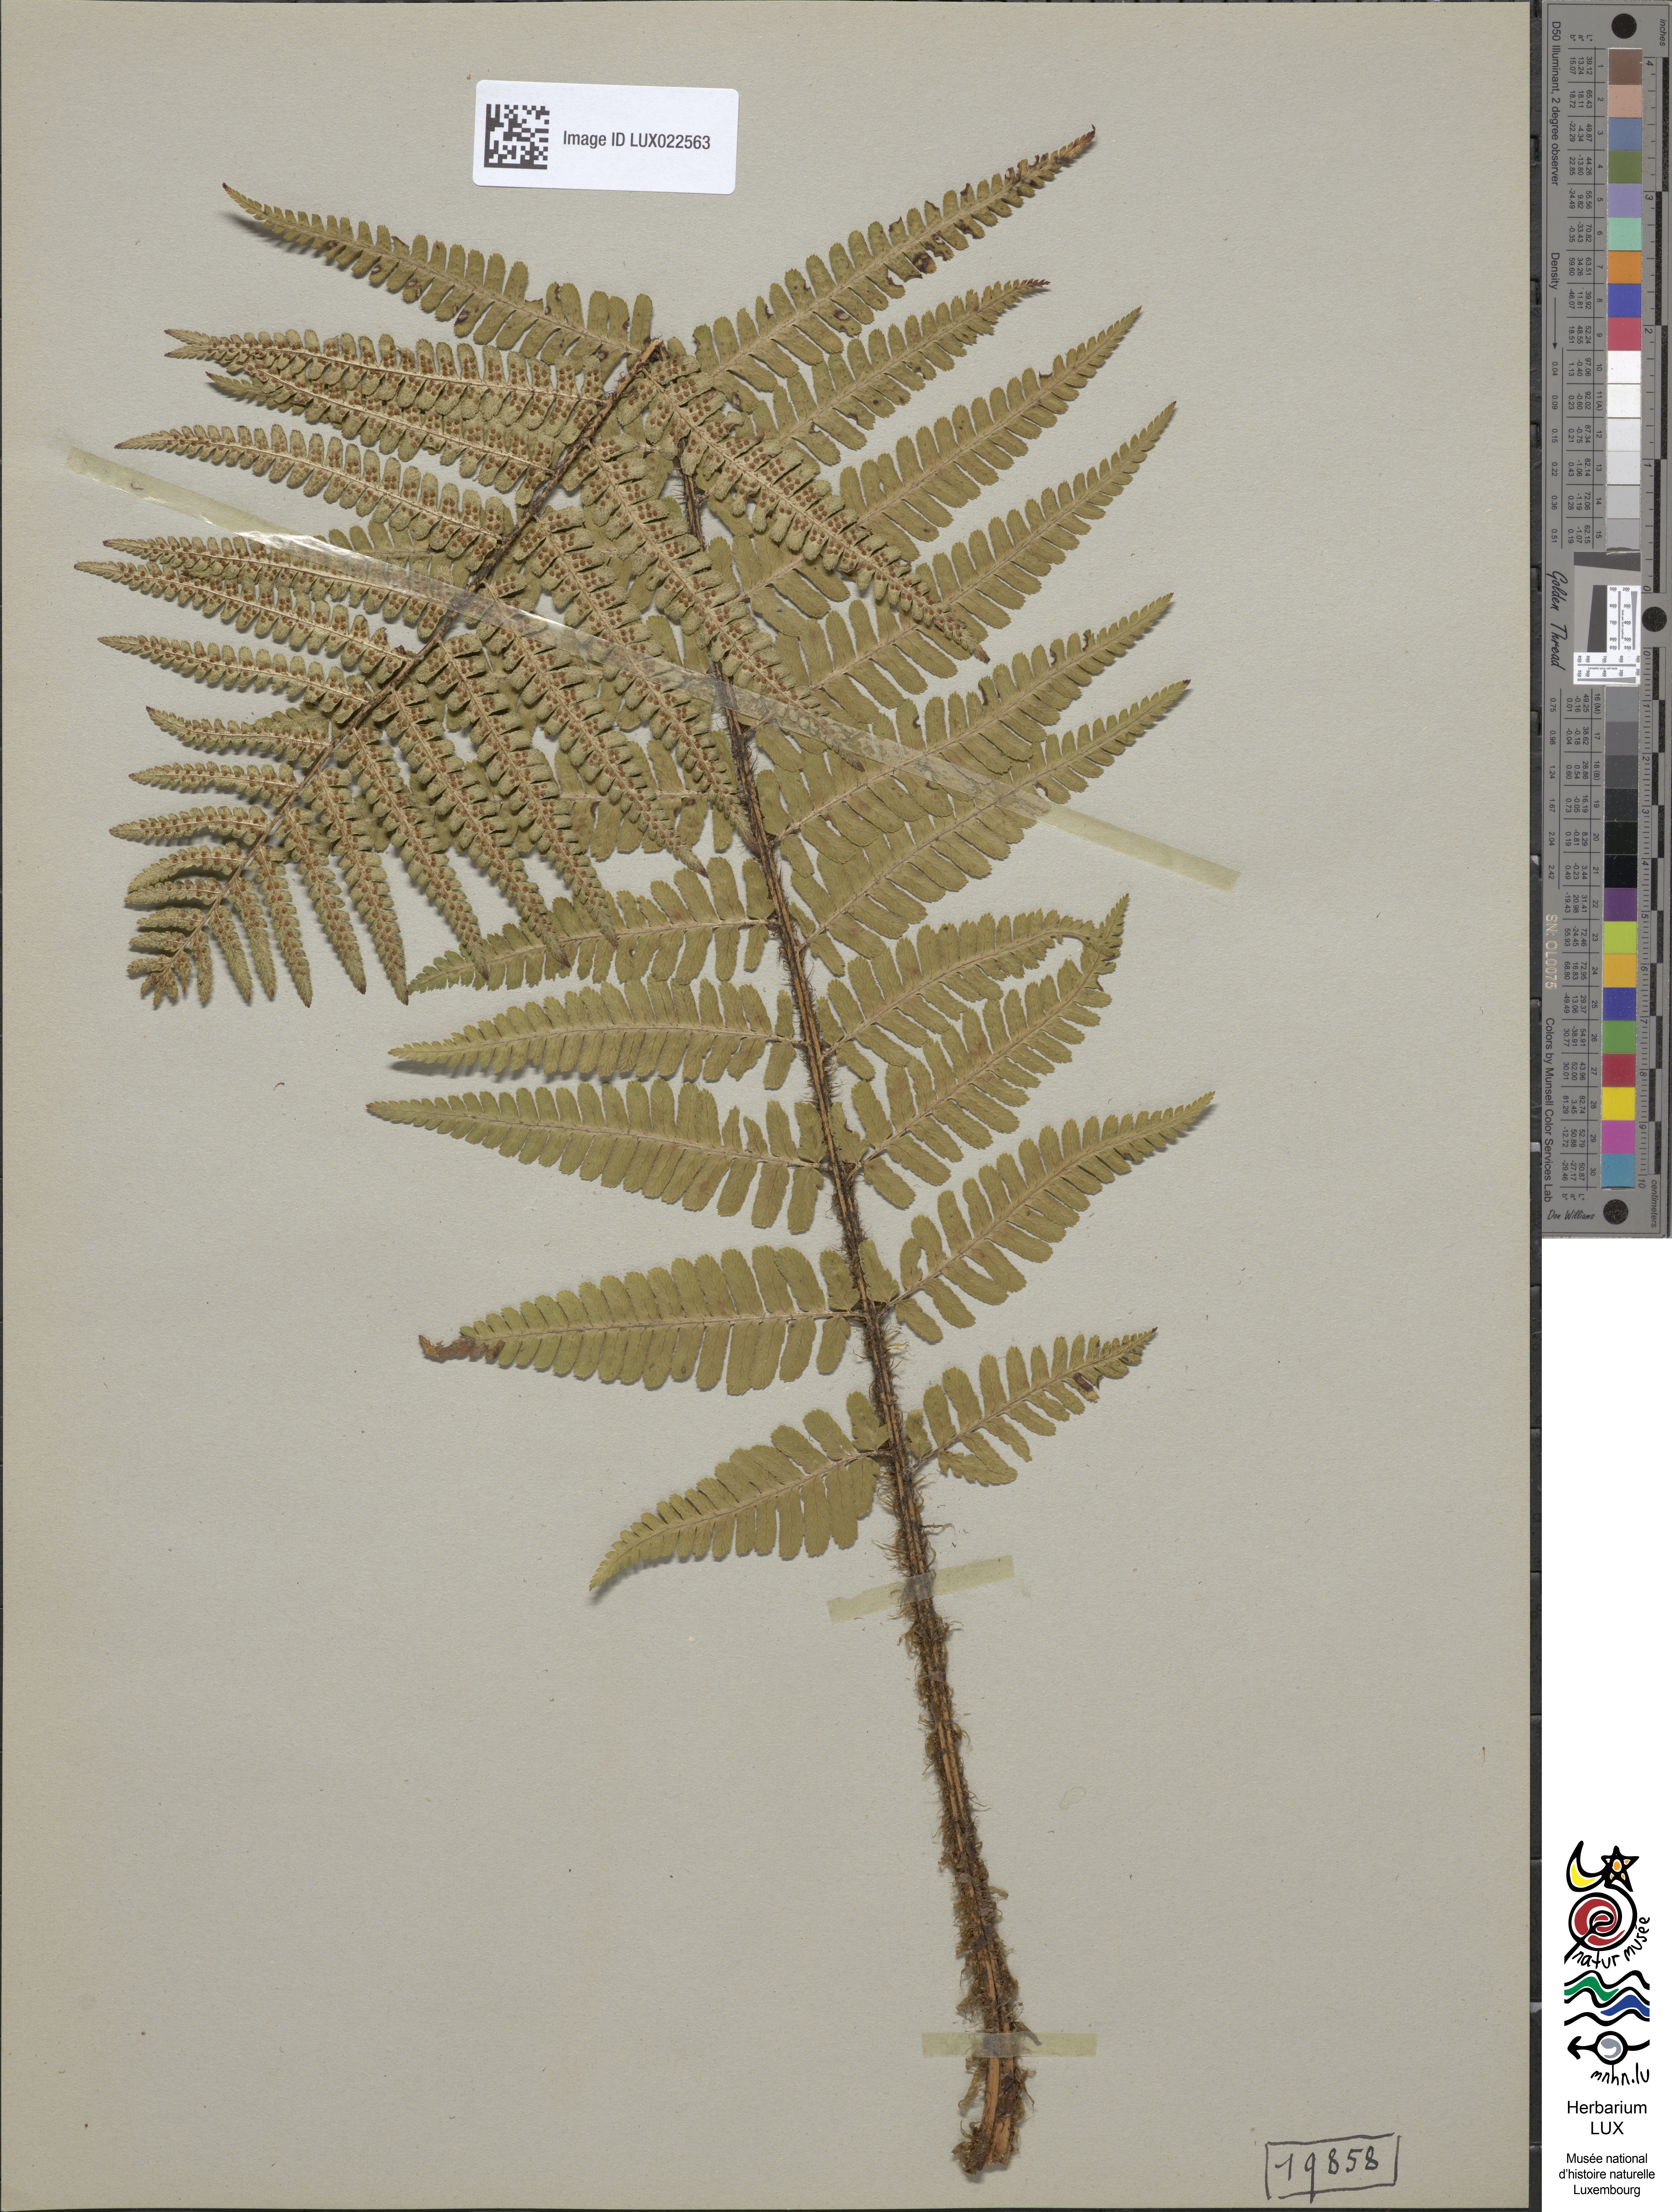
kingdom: Plantae
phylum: Tracheophyta
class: Polypodiopsida
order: Polypodiales
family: Dryopteridaceae
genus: Dryopteris
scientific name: Dryopteris borreri
